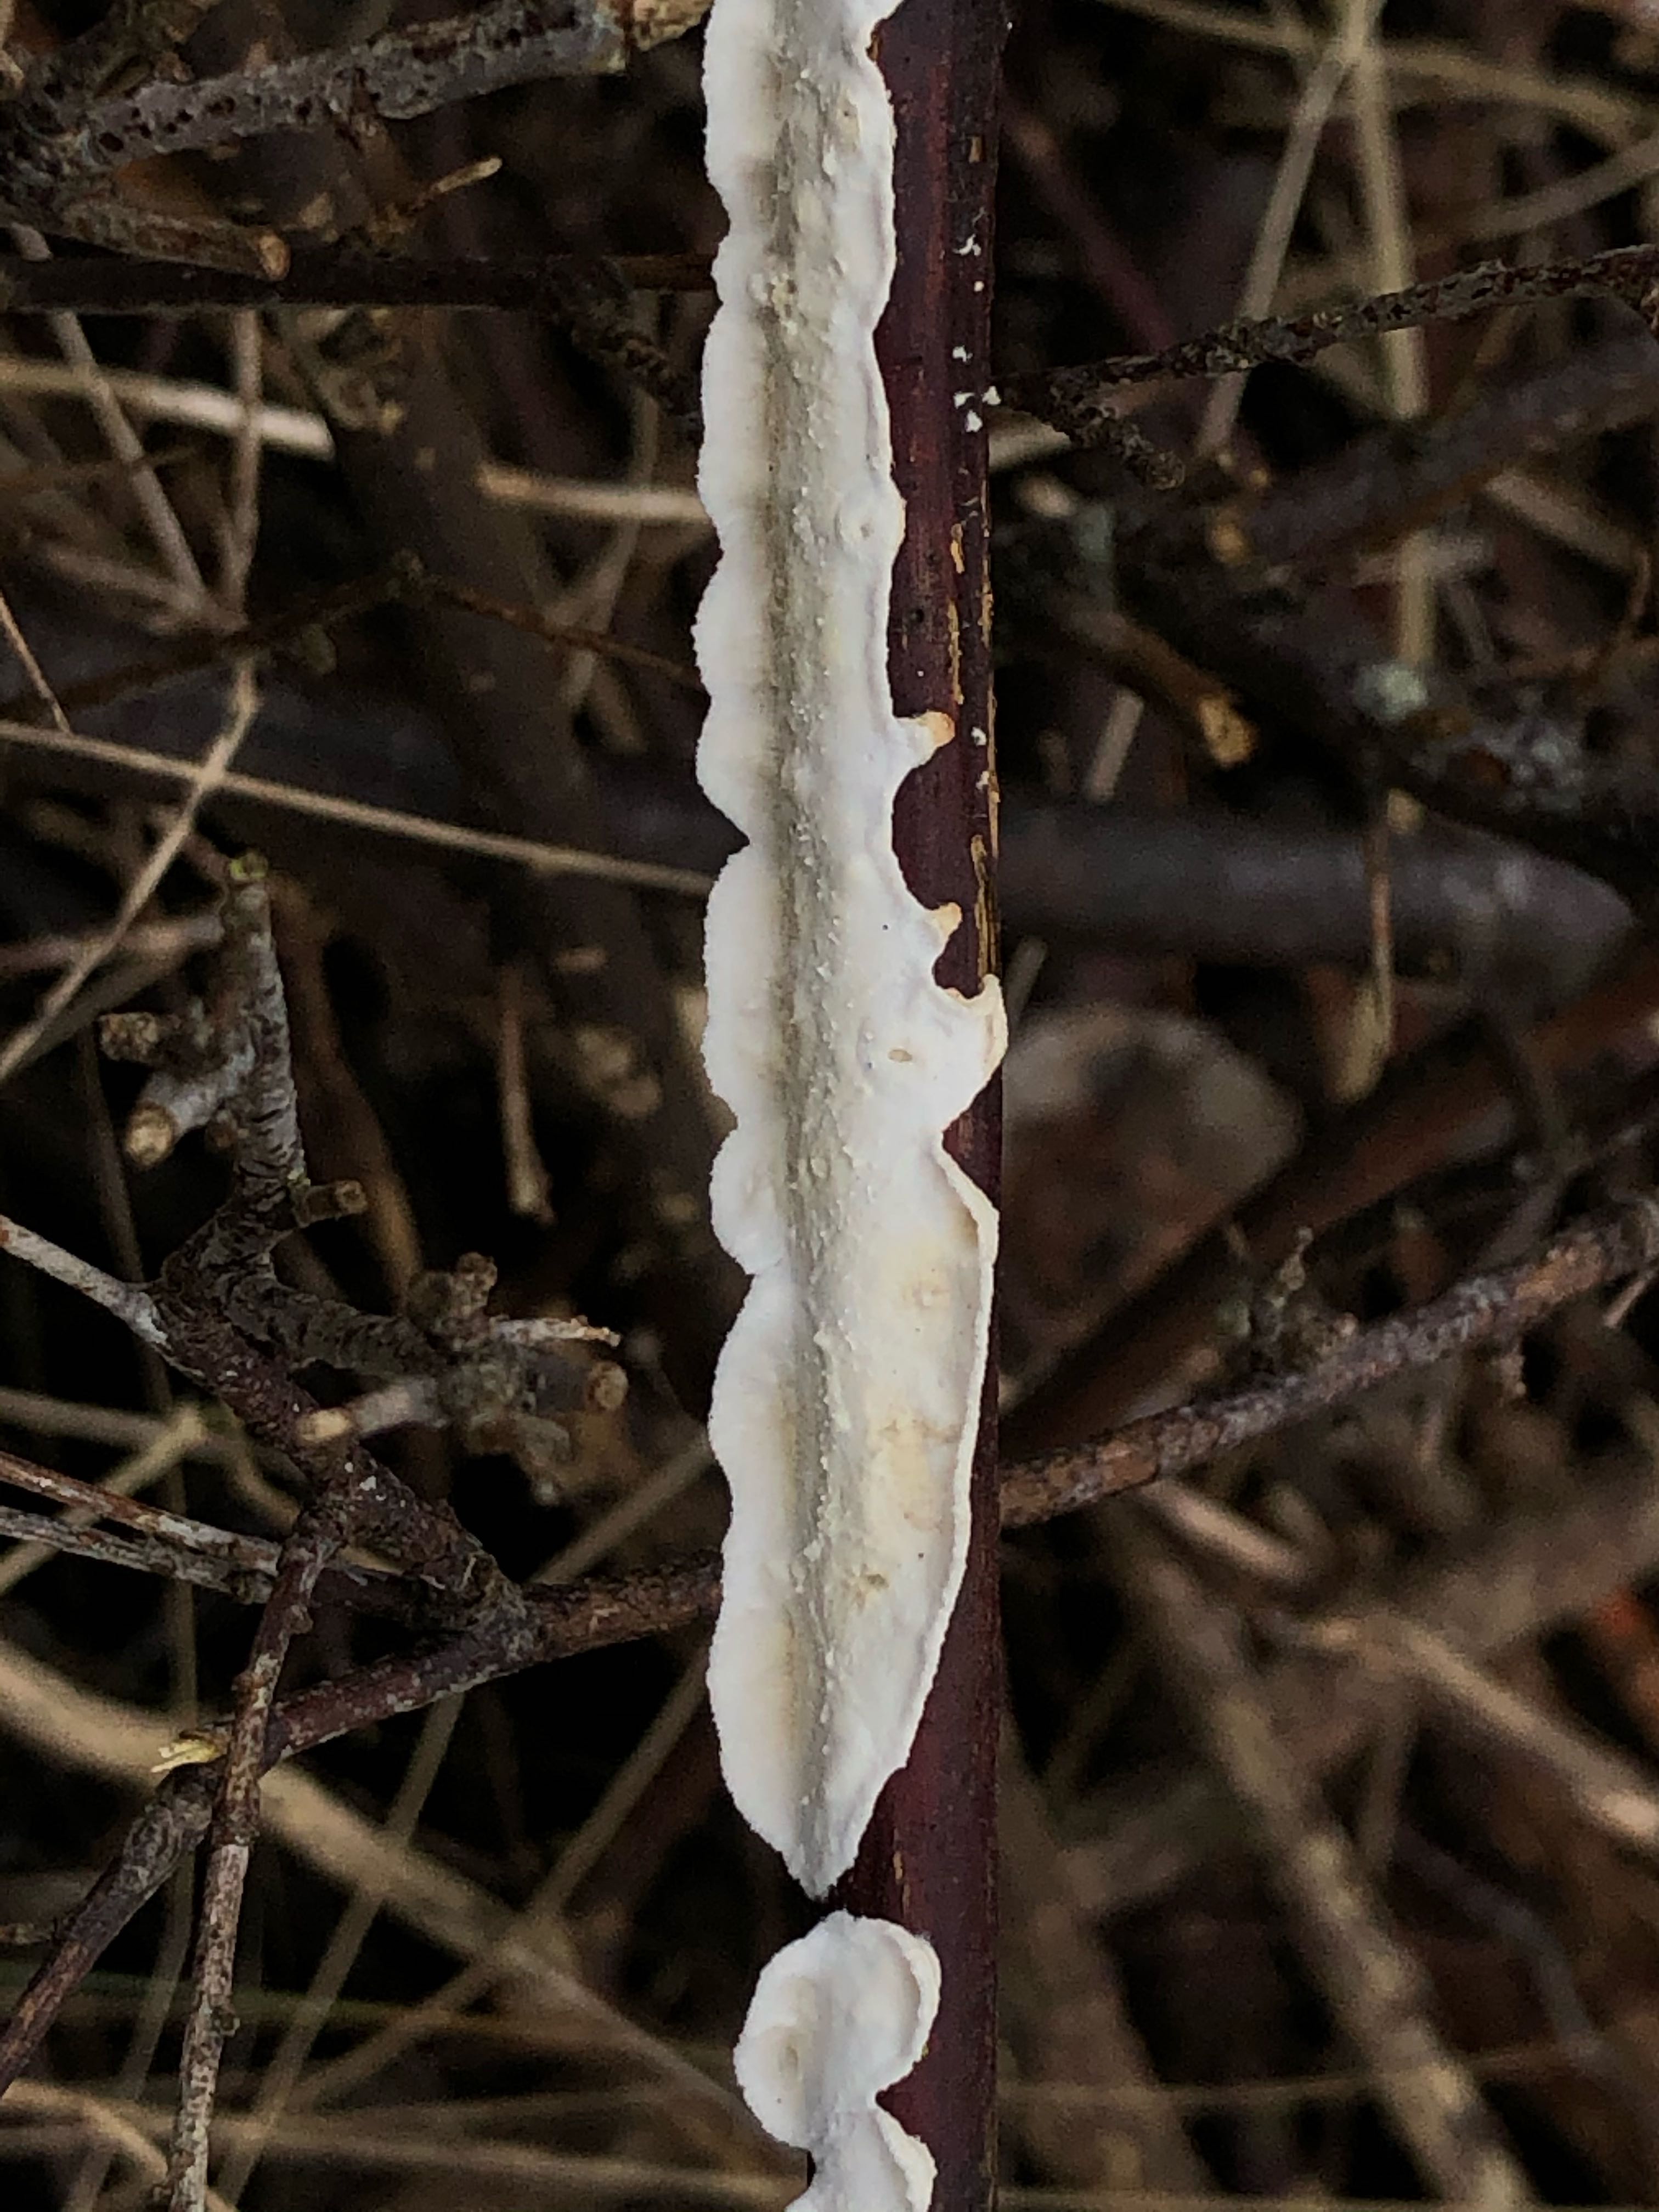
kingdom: Fungi
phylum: Basidiomycota
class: Agaricomycetes
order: Polyporales
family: Irpicaceae
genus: Byssomerulius
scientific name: Byssomerulius corium
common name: læder-åresvamp
